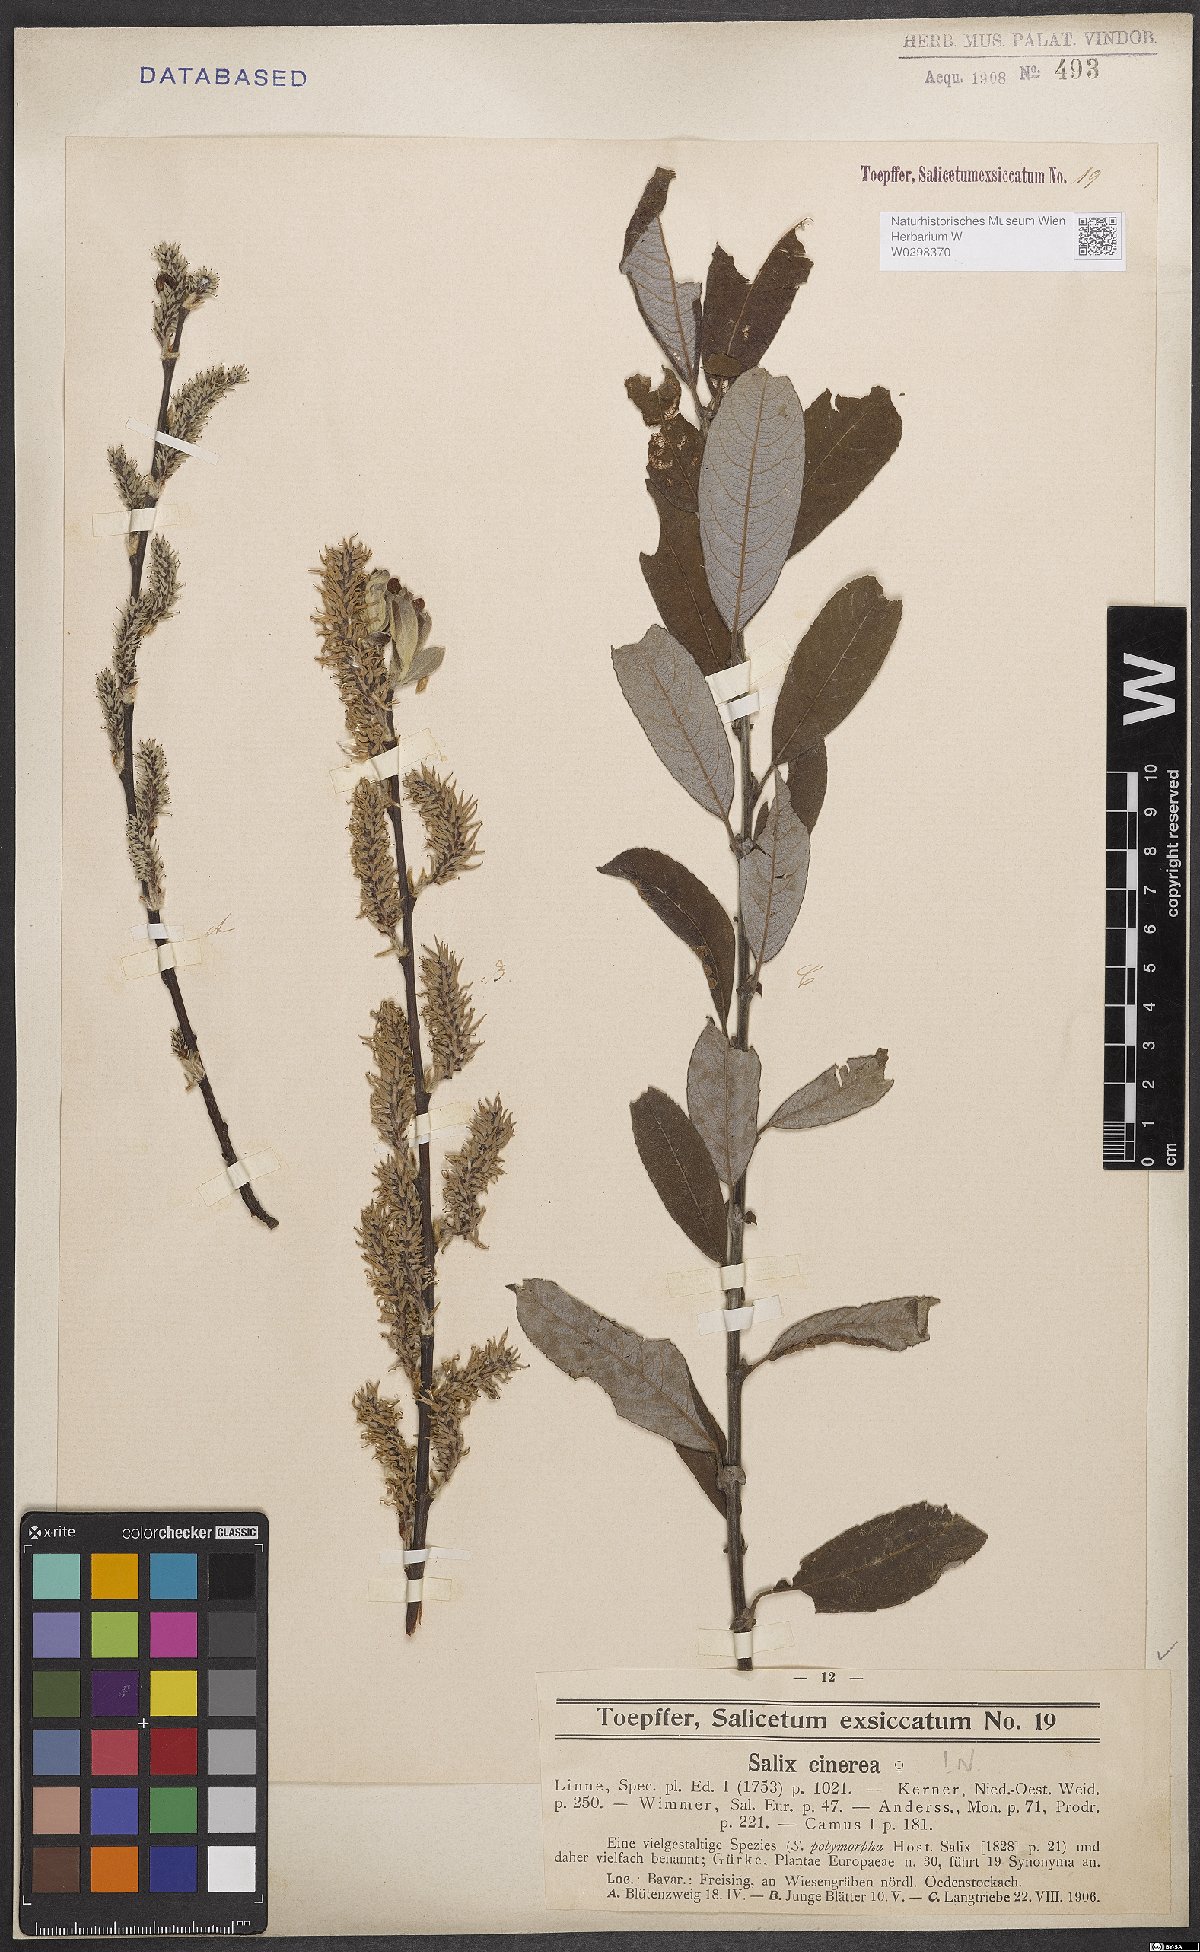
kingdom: Plantae
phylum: Tracheophyta
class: Magnoliopsida
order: Malpighiales
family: Salicaceae
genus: Salix
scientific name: Salix cinerea
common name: Common sallow
